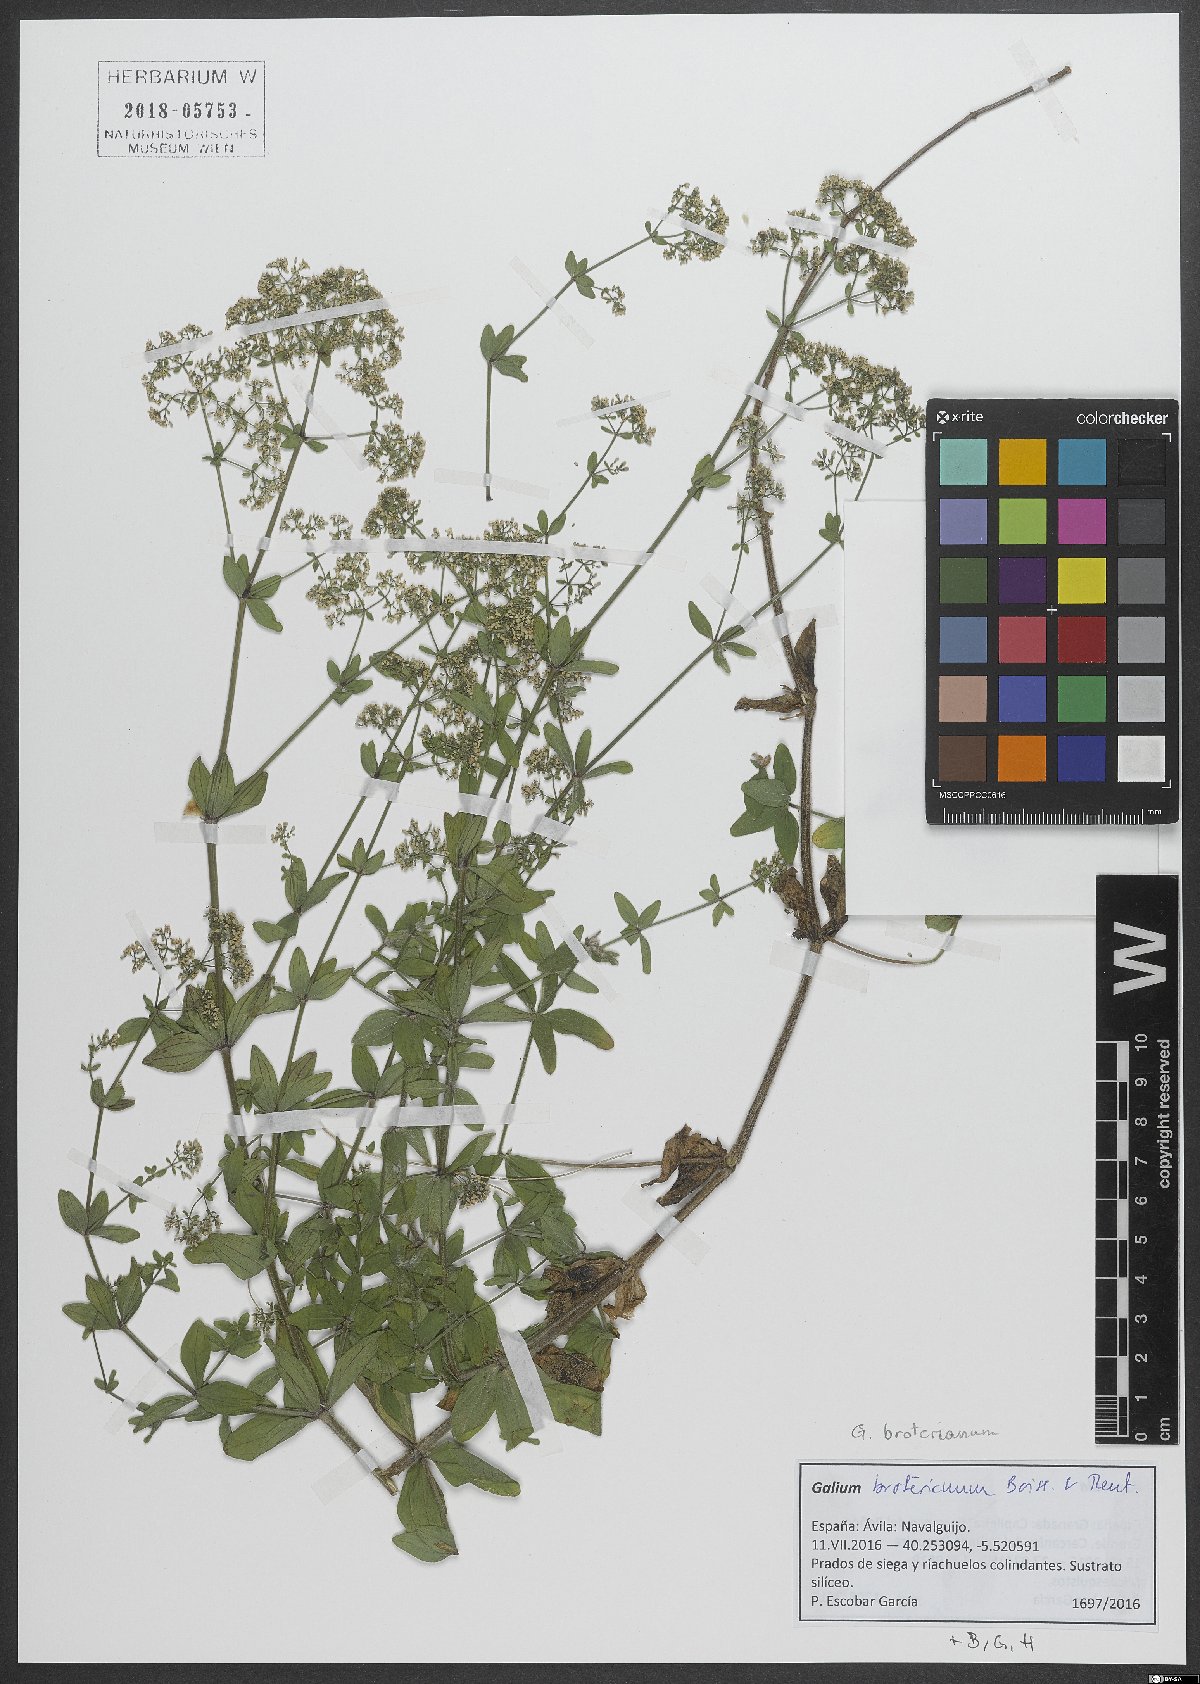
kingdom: Plantae
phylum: Tracheophyta
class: Magnoliopsida
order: Gentianales
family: Rubiaceae
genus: Galium
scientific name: Galium broterianum
